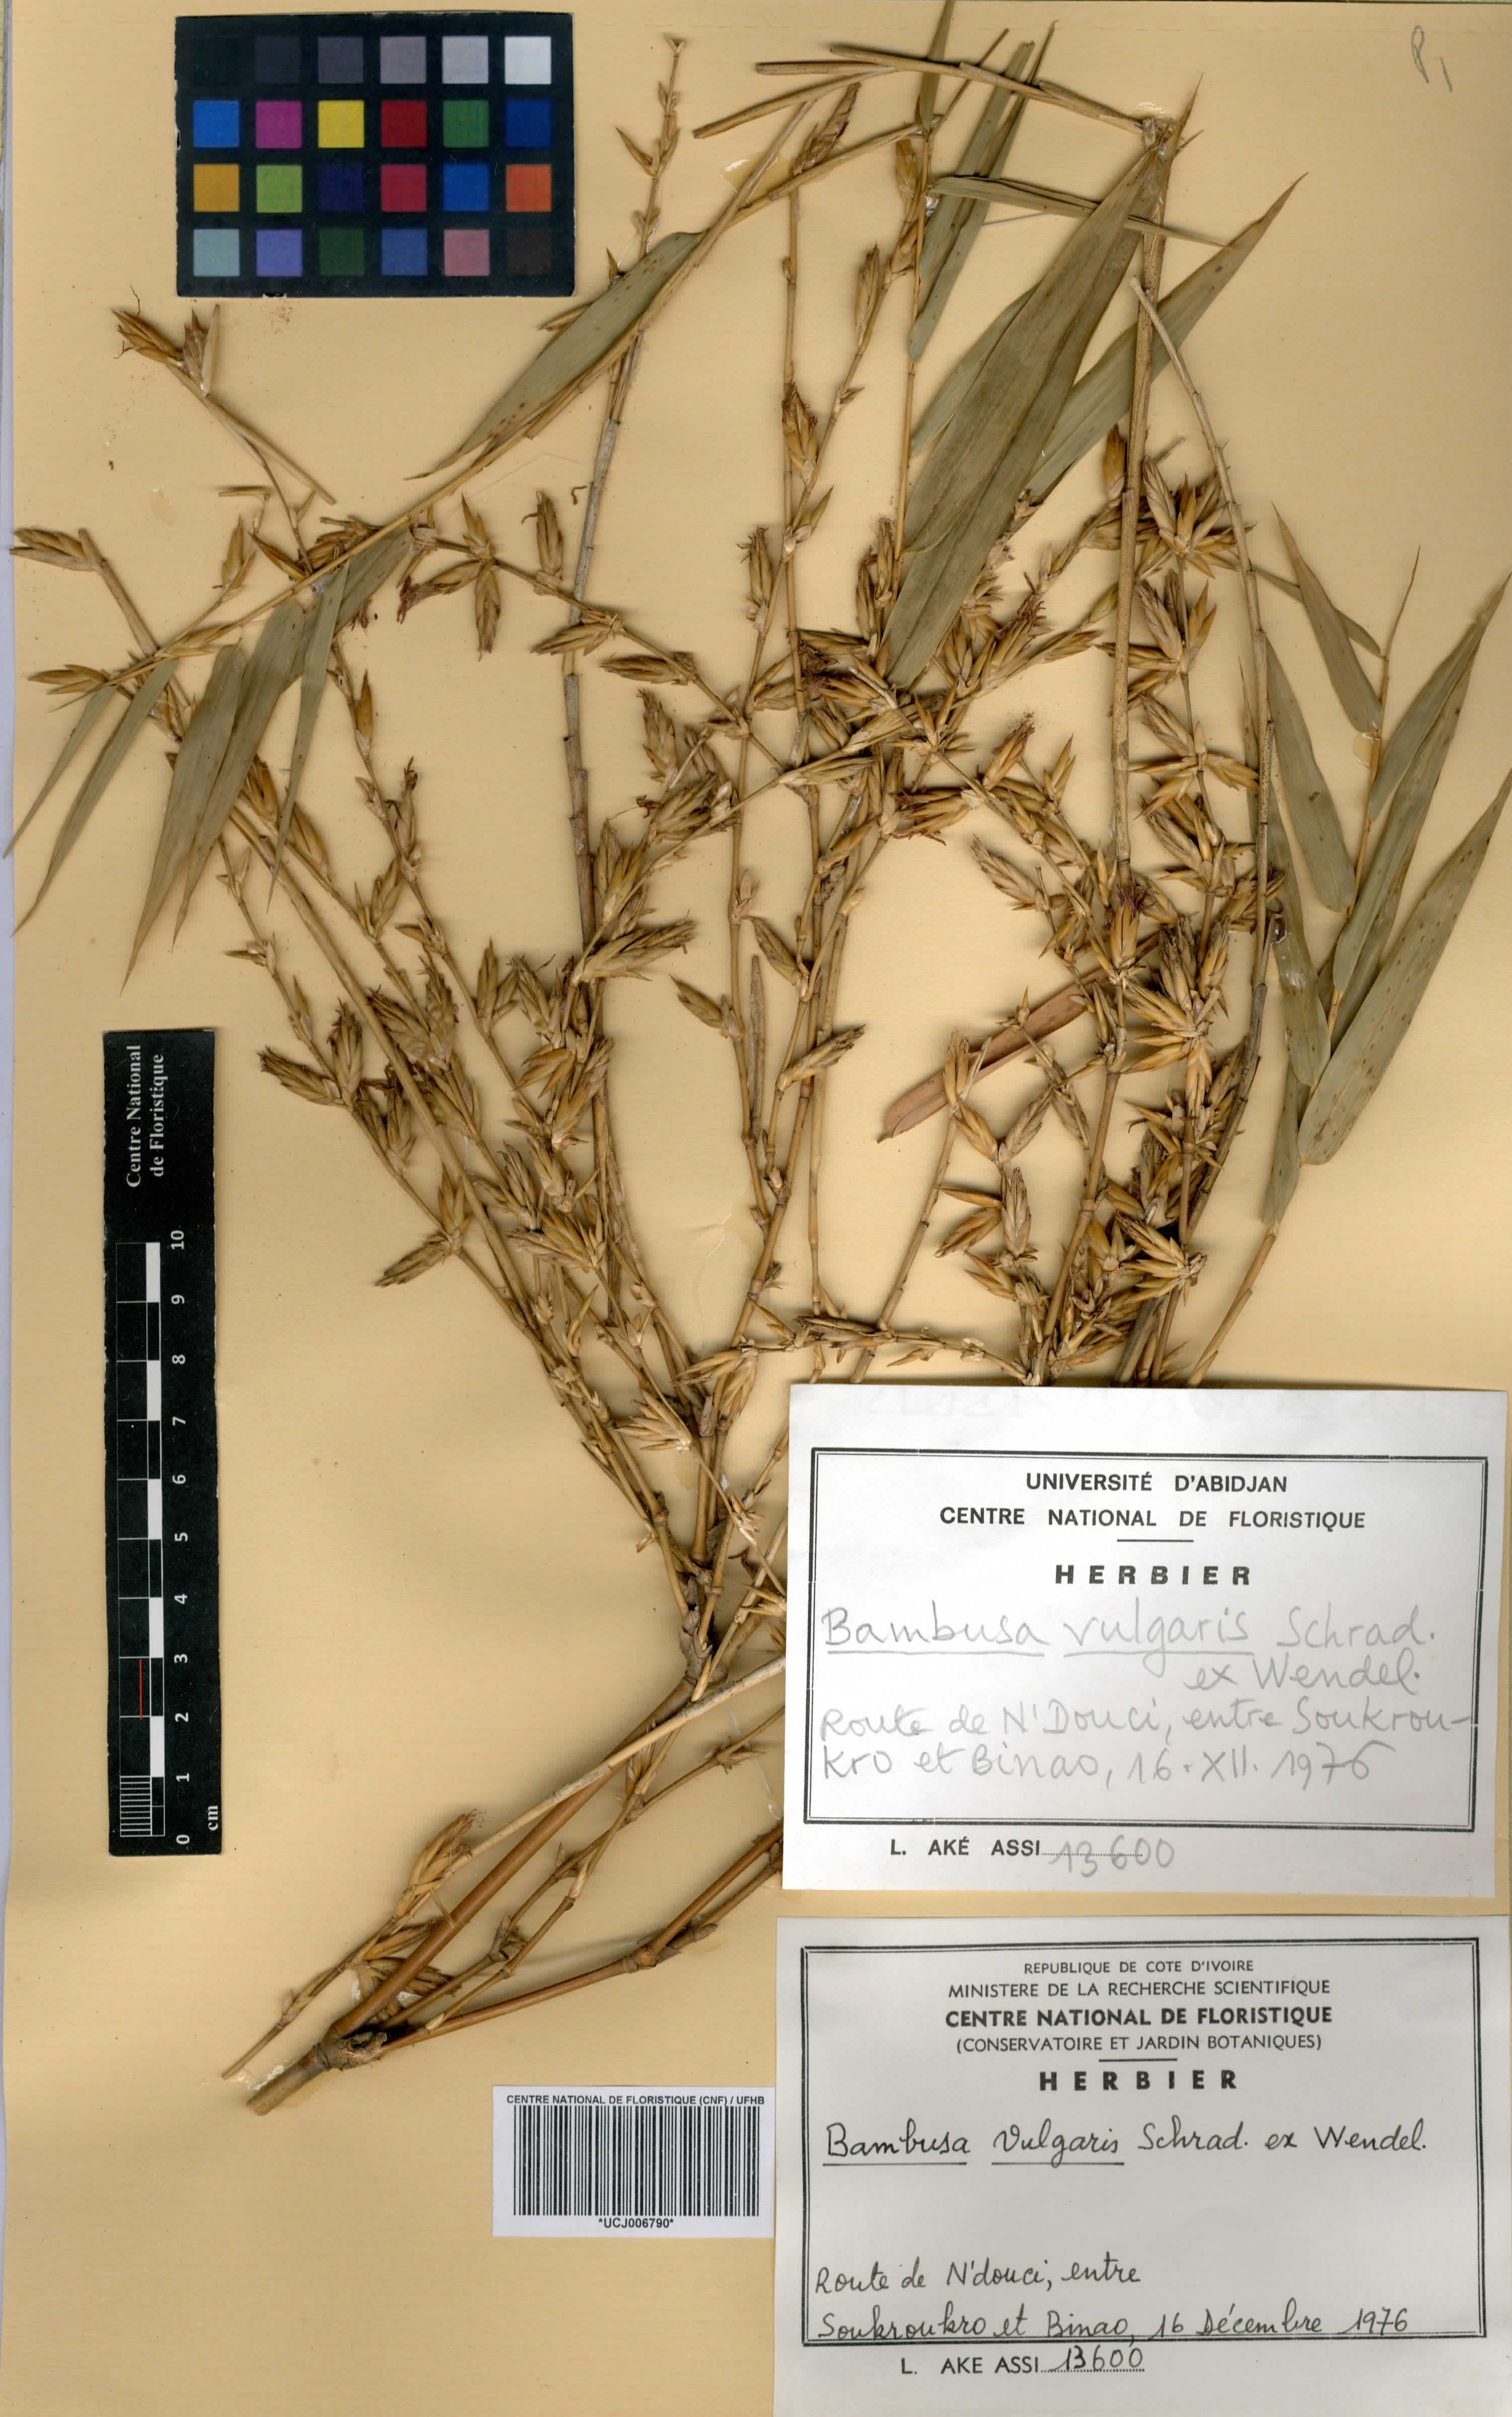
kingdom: Plantae
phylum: Tracheophyta
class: Liliopsida
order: Poales
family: Poaceae
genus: Bambusa
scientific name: Bambusa vulgaris
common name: Common bamboo
